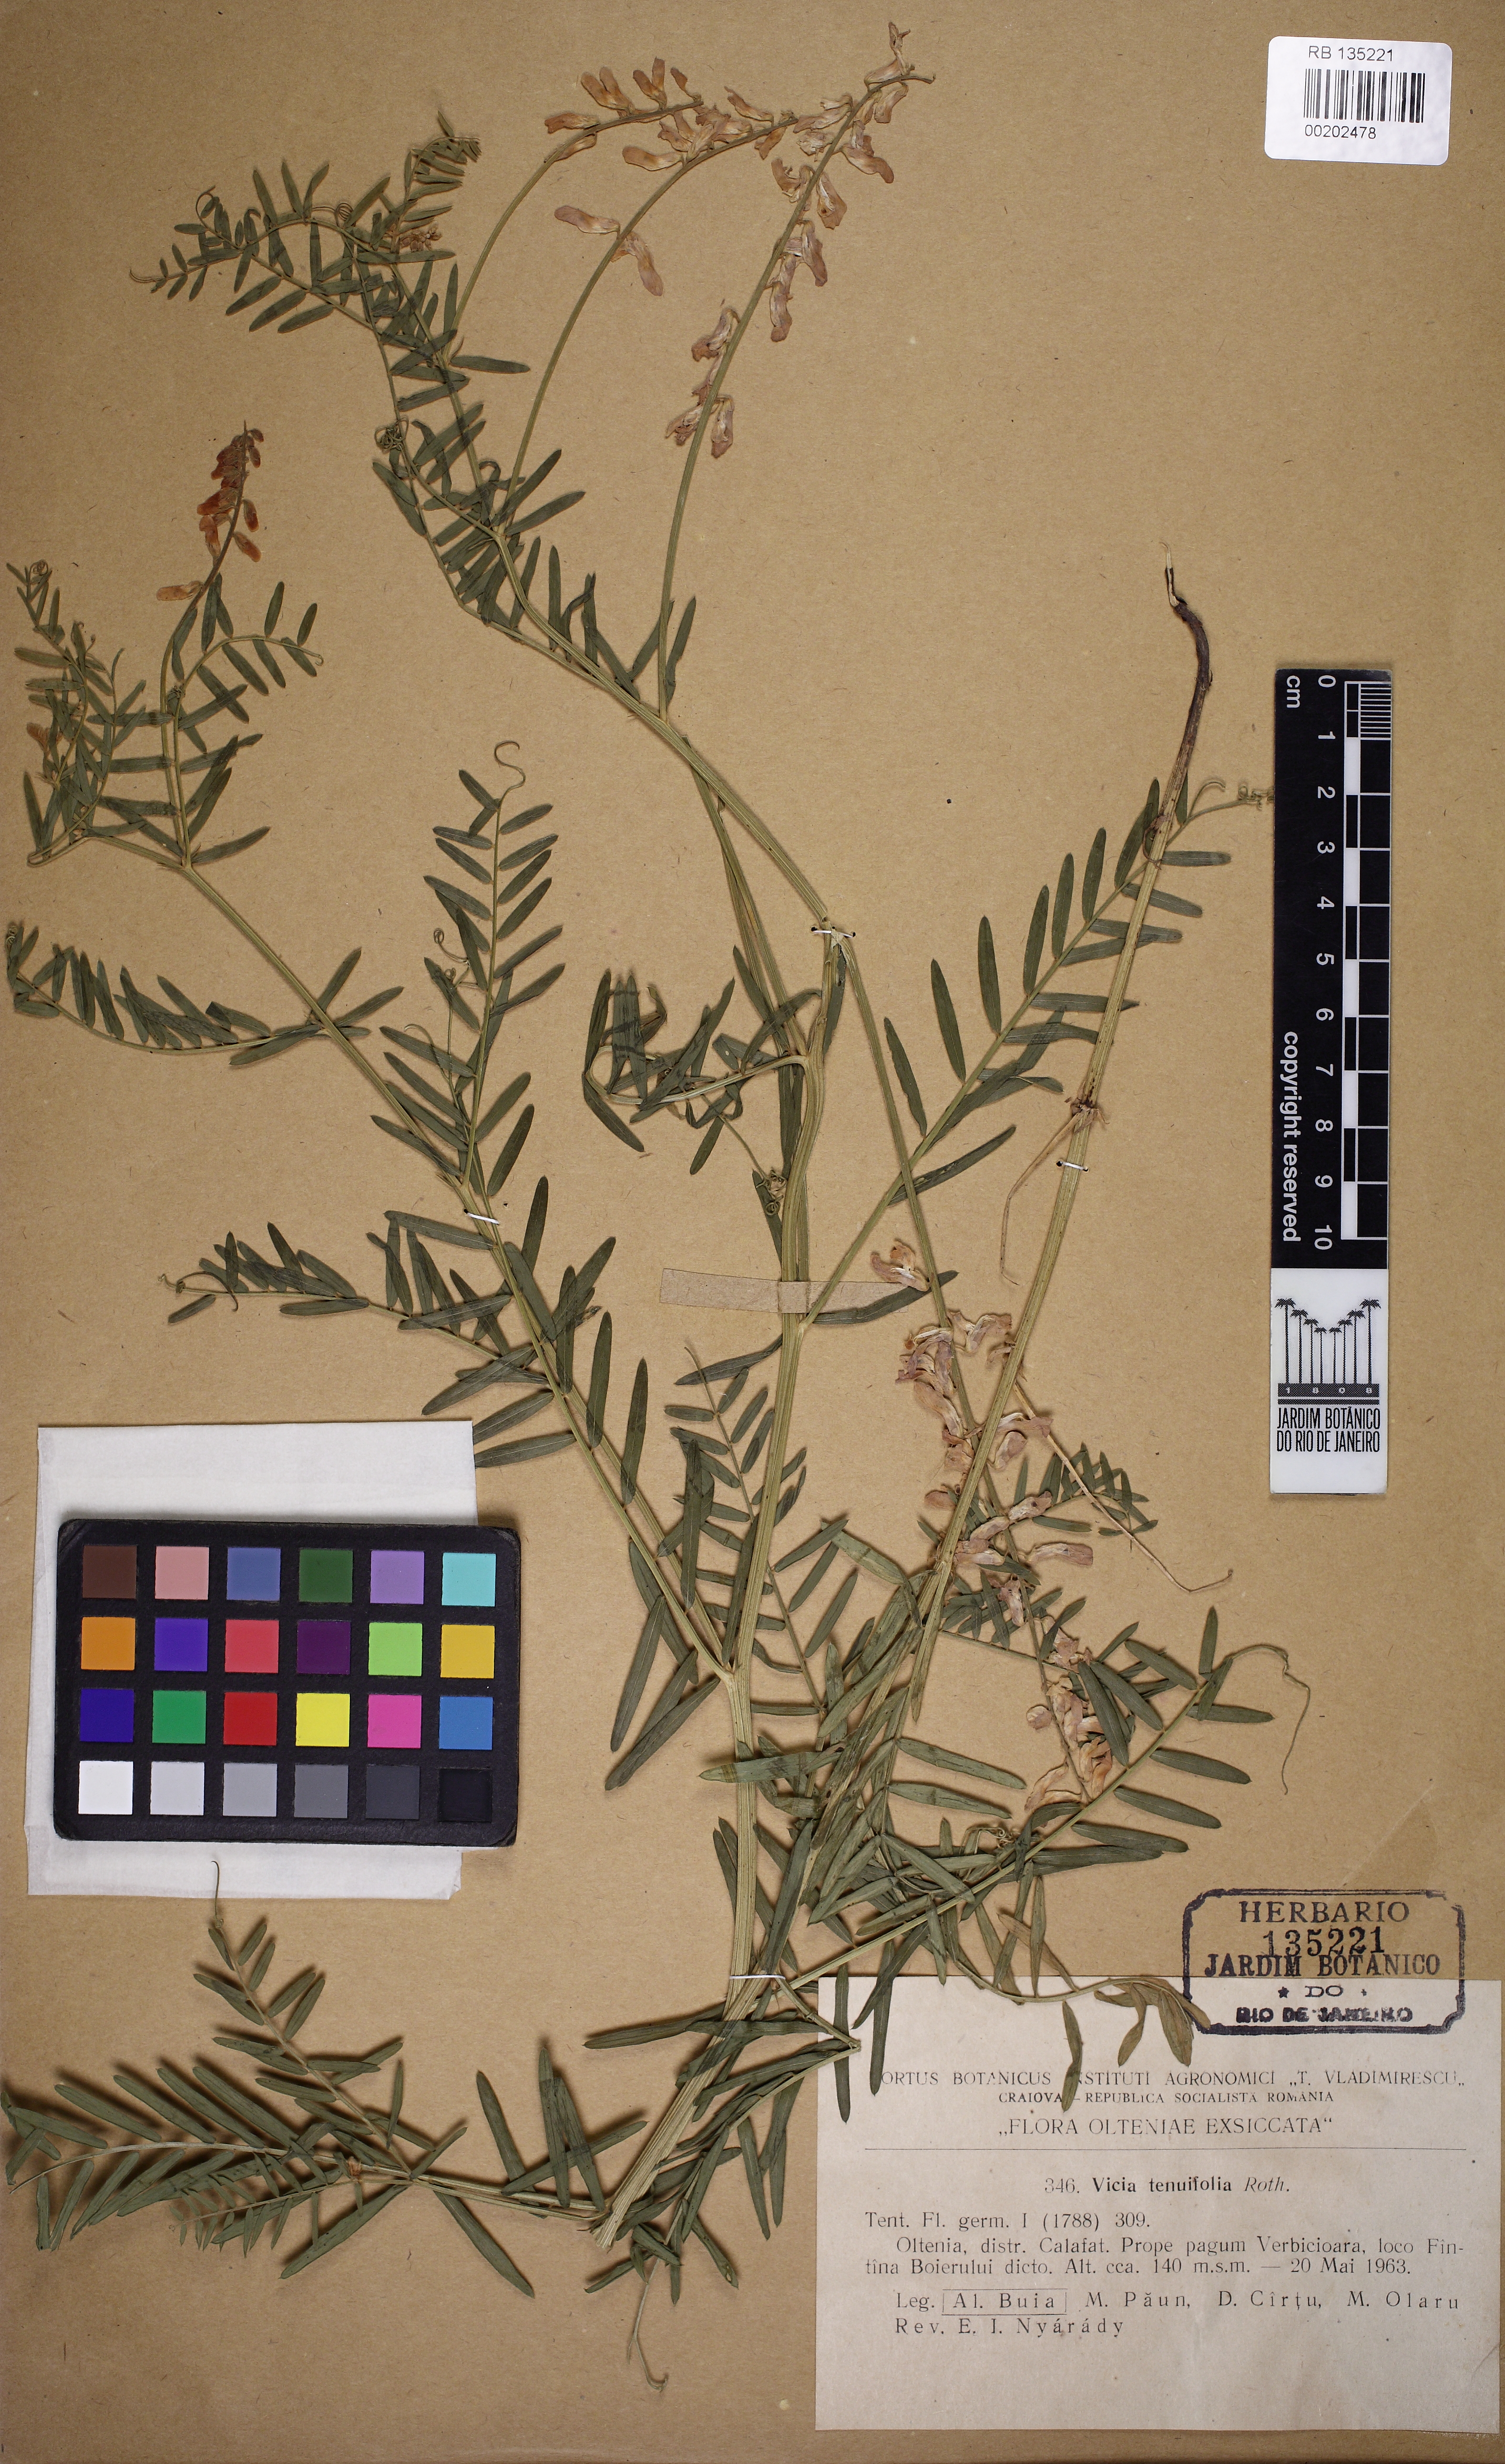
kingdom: Plantae
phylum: Tracheophyta
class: Magnoliopsida
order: Fabales
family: Fabaceae
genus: Vicia
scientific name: Vicia tenuifolia
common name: Fine-leaved vetch
